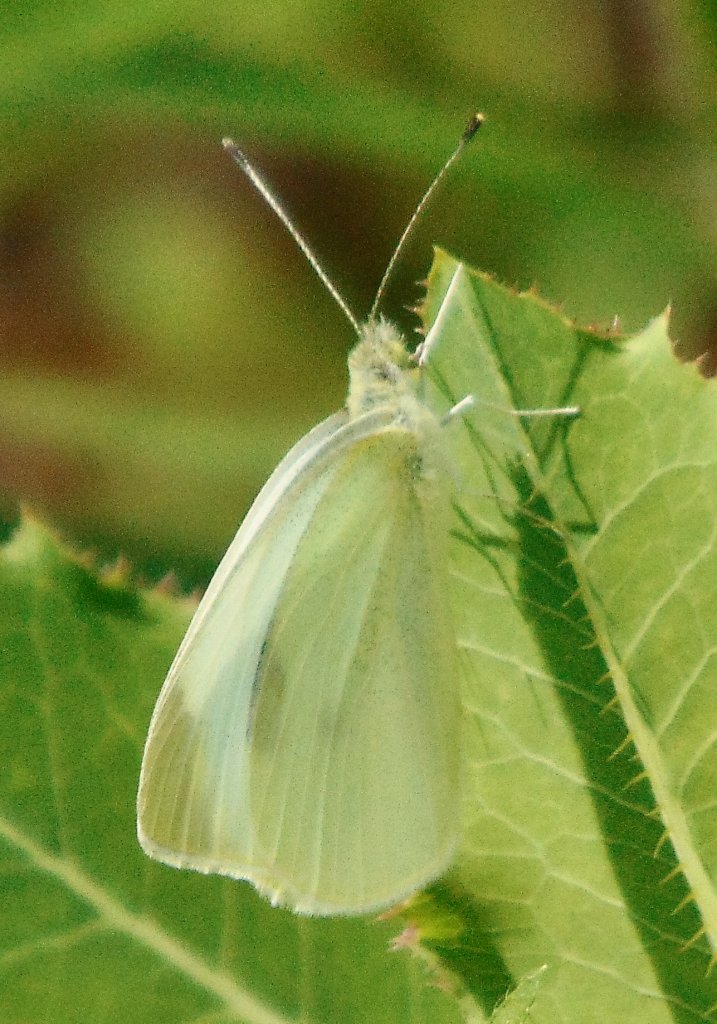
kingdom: Animalia
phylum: Arthropoda
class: Insecta
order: Lepidoptera
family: Pieridae
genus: Pieris
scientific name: Pieris rapae
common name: Cabbage White
